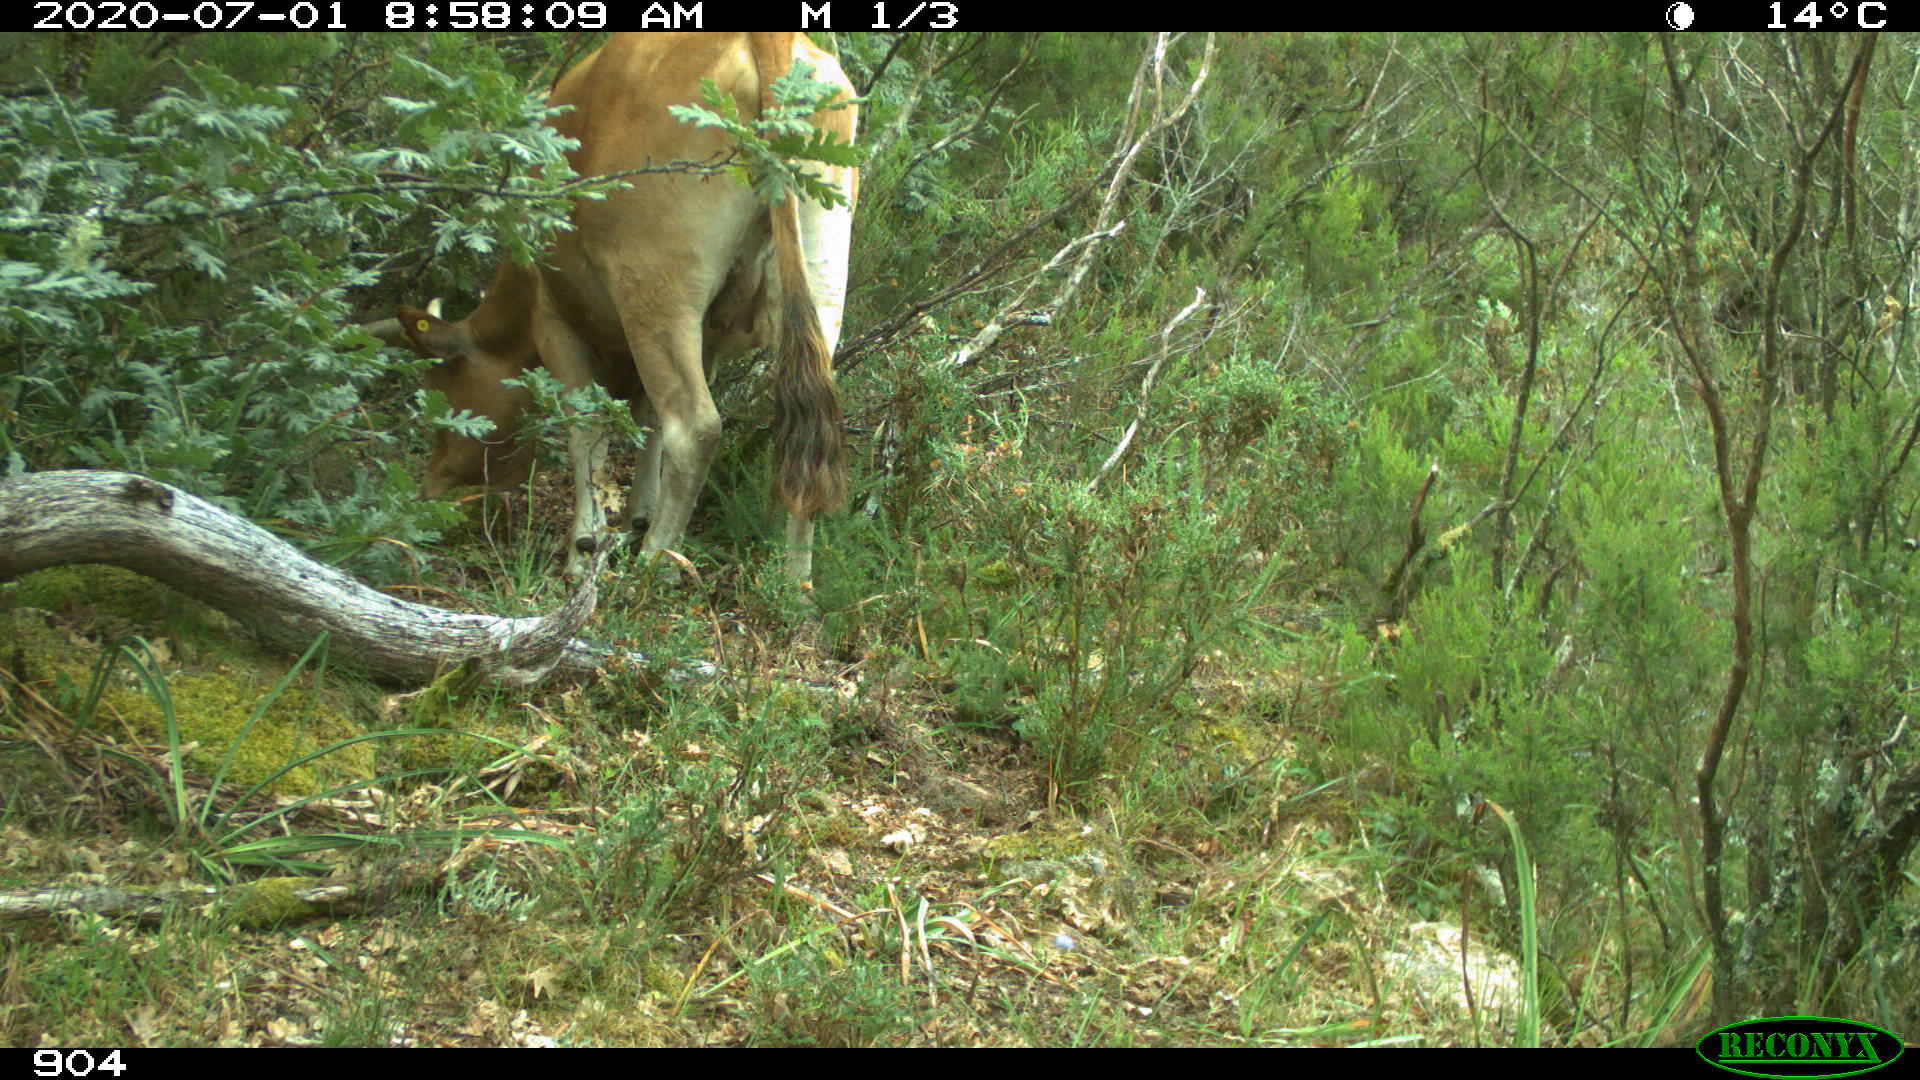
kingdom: Animalia
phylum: Chordata
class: Mammalia
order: Artiodactyla
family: Bovidae
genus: Bos
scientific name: Bos taurus
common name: Domesticated cattle
